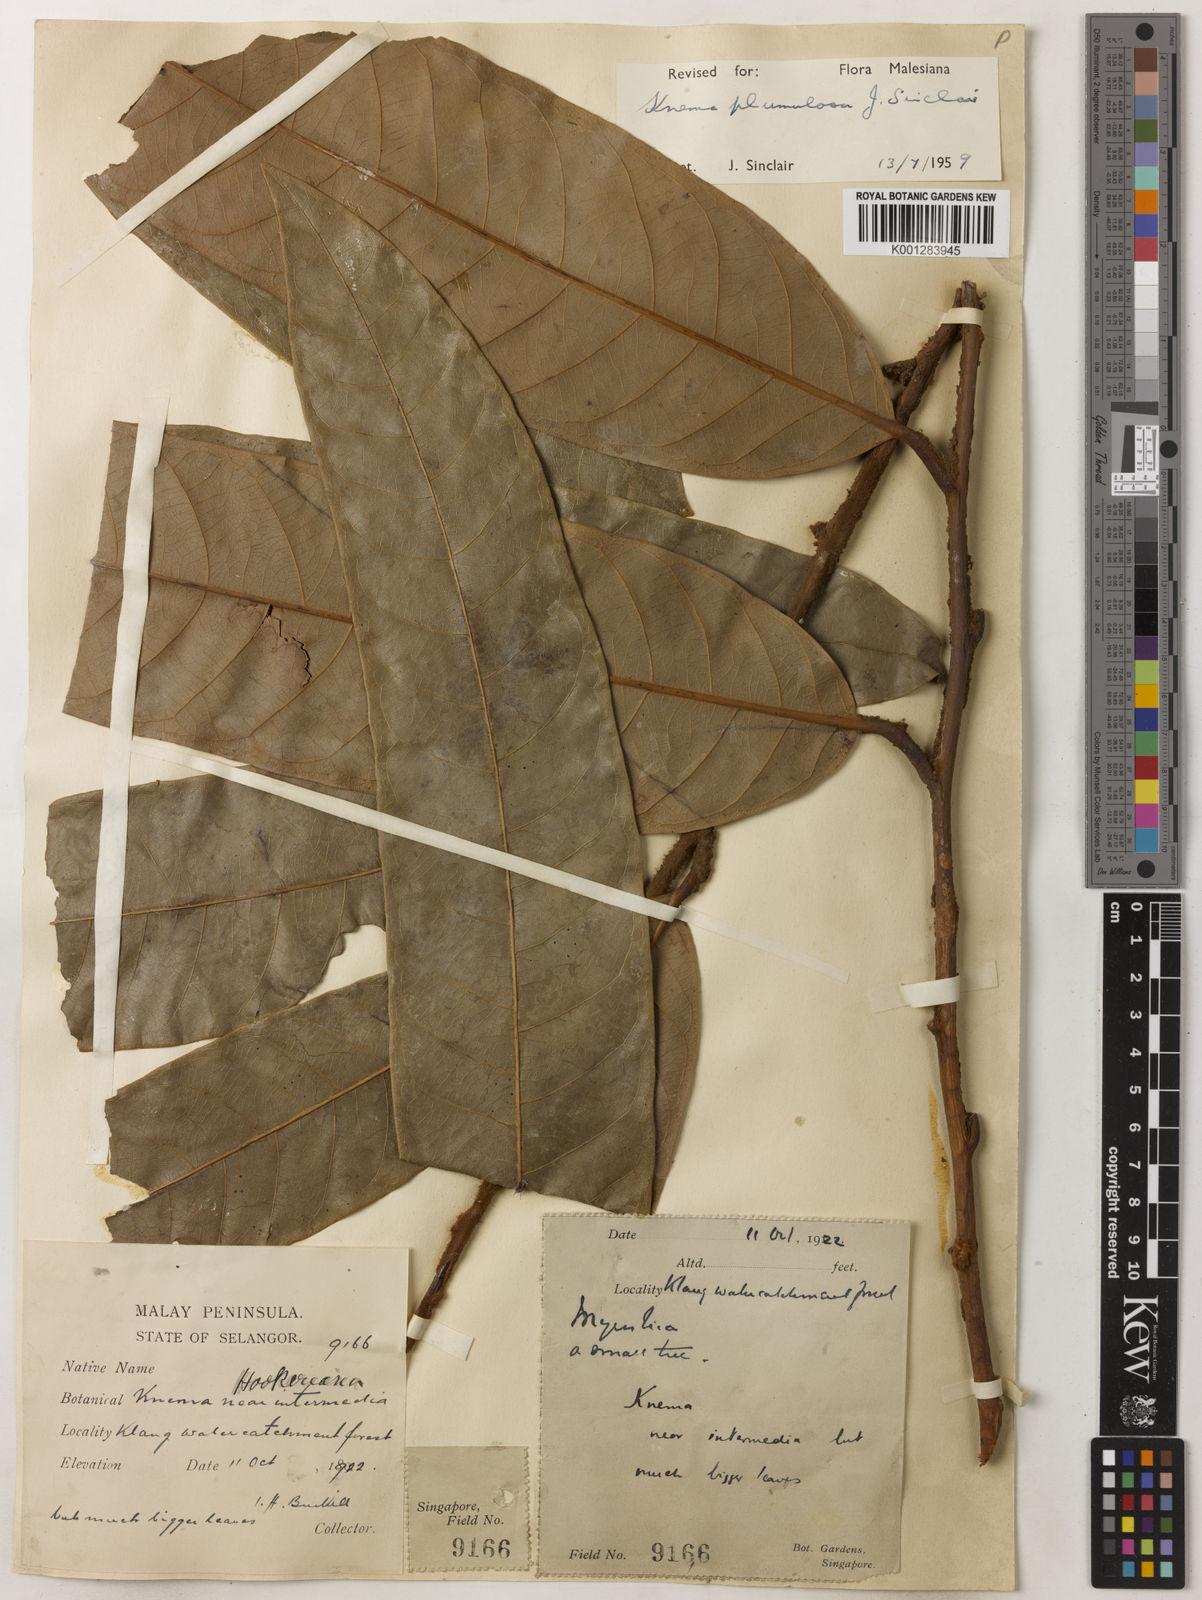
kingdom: Plantae
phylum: Tracheophyta
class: Magnoliopsida
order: Magnoliales
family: Myristicaceae
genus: Knema
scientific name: Knema plumulosa
